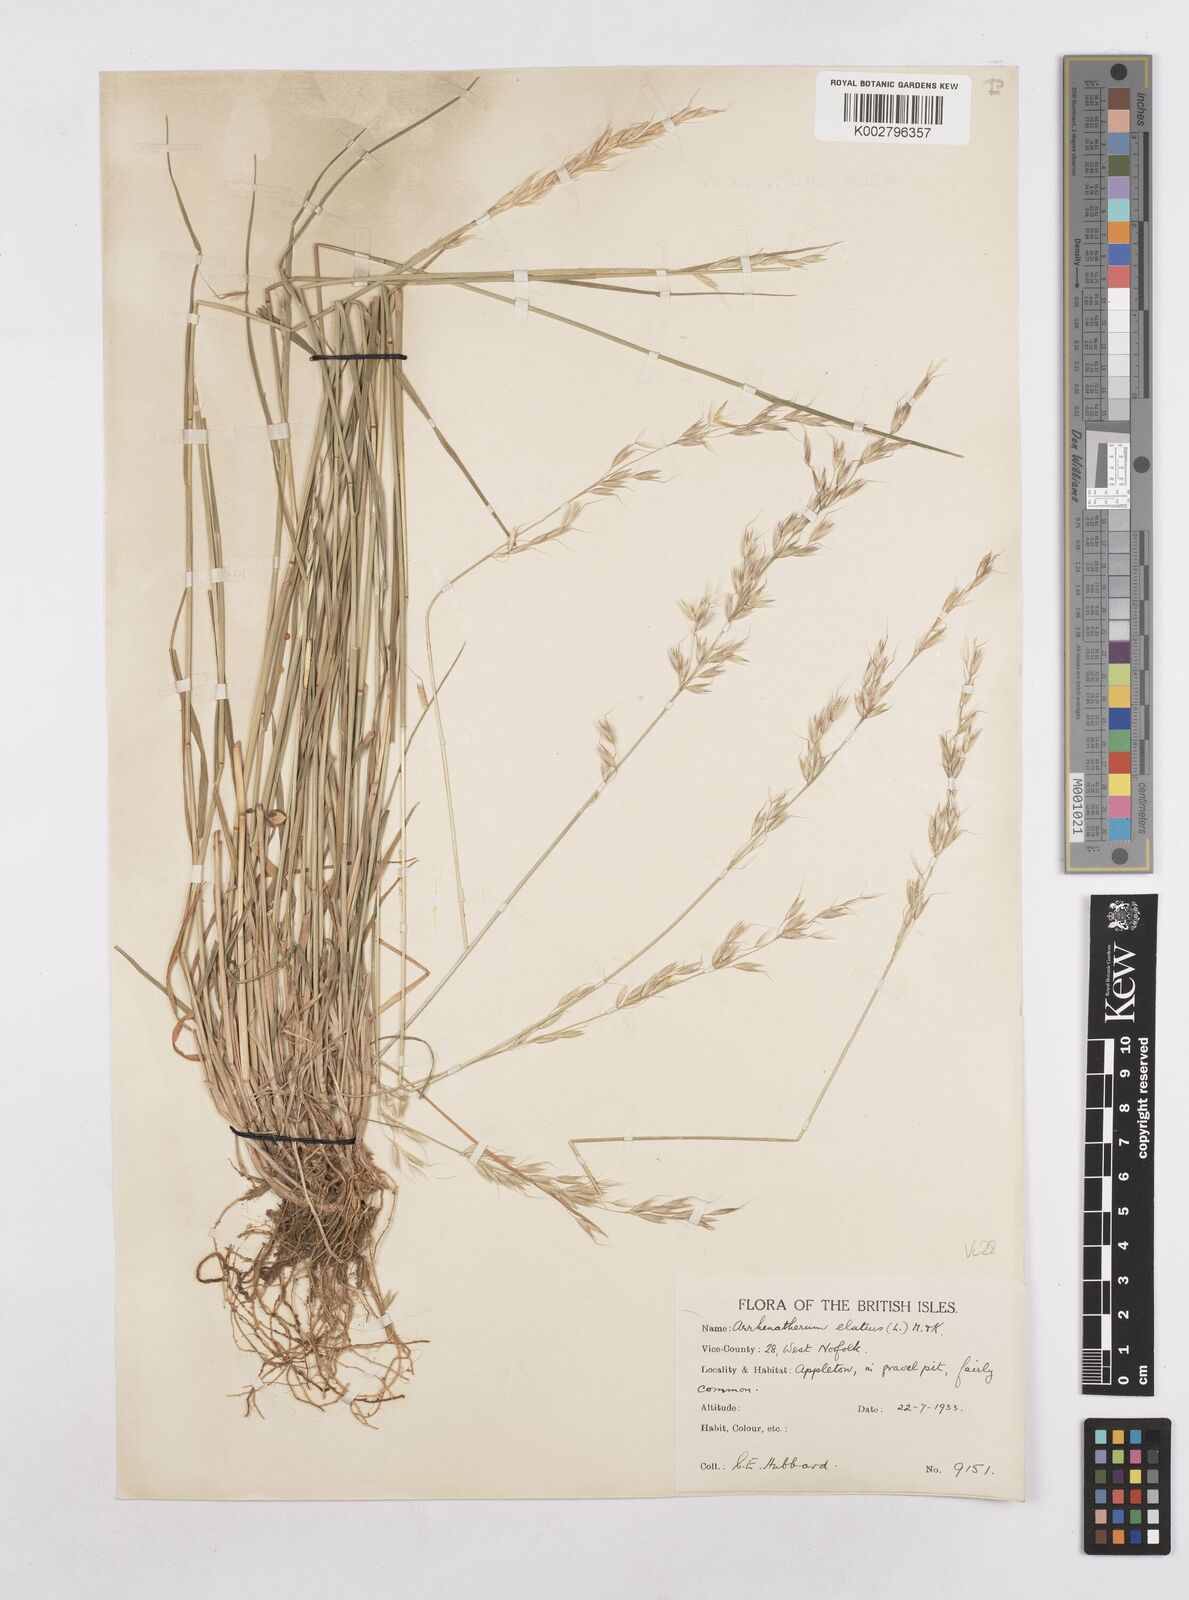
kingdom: Plantae
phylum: Tracheophyta
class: Liliopsida
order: Poales
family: Poaceae
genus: Arrhenatherum
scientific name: Arrhenatherum elatius
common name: Tall oatgrass
